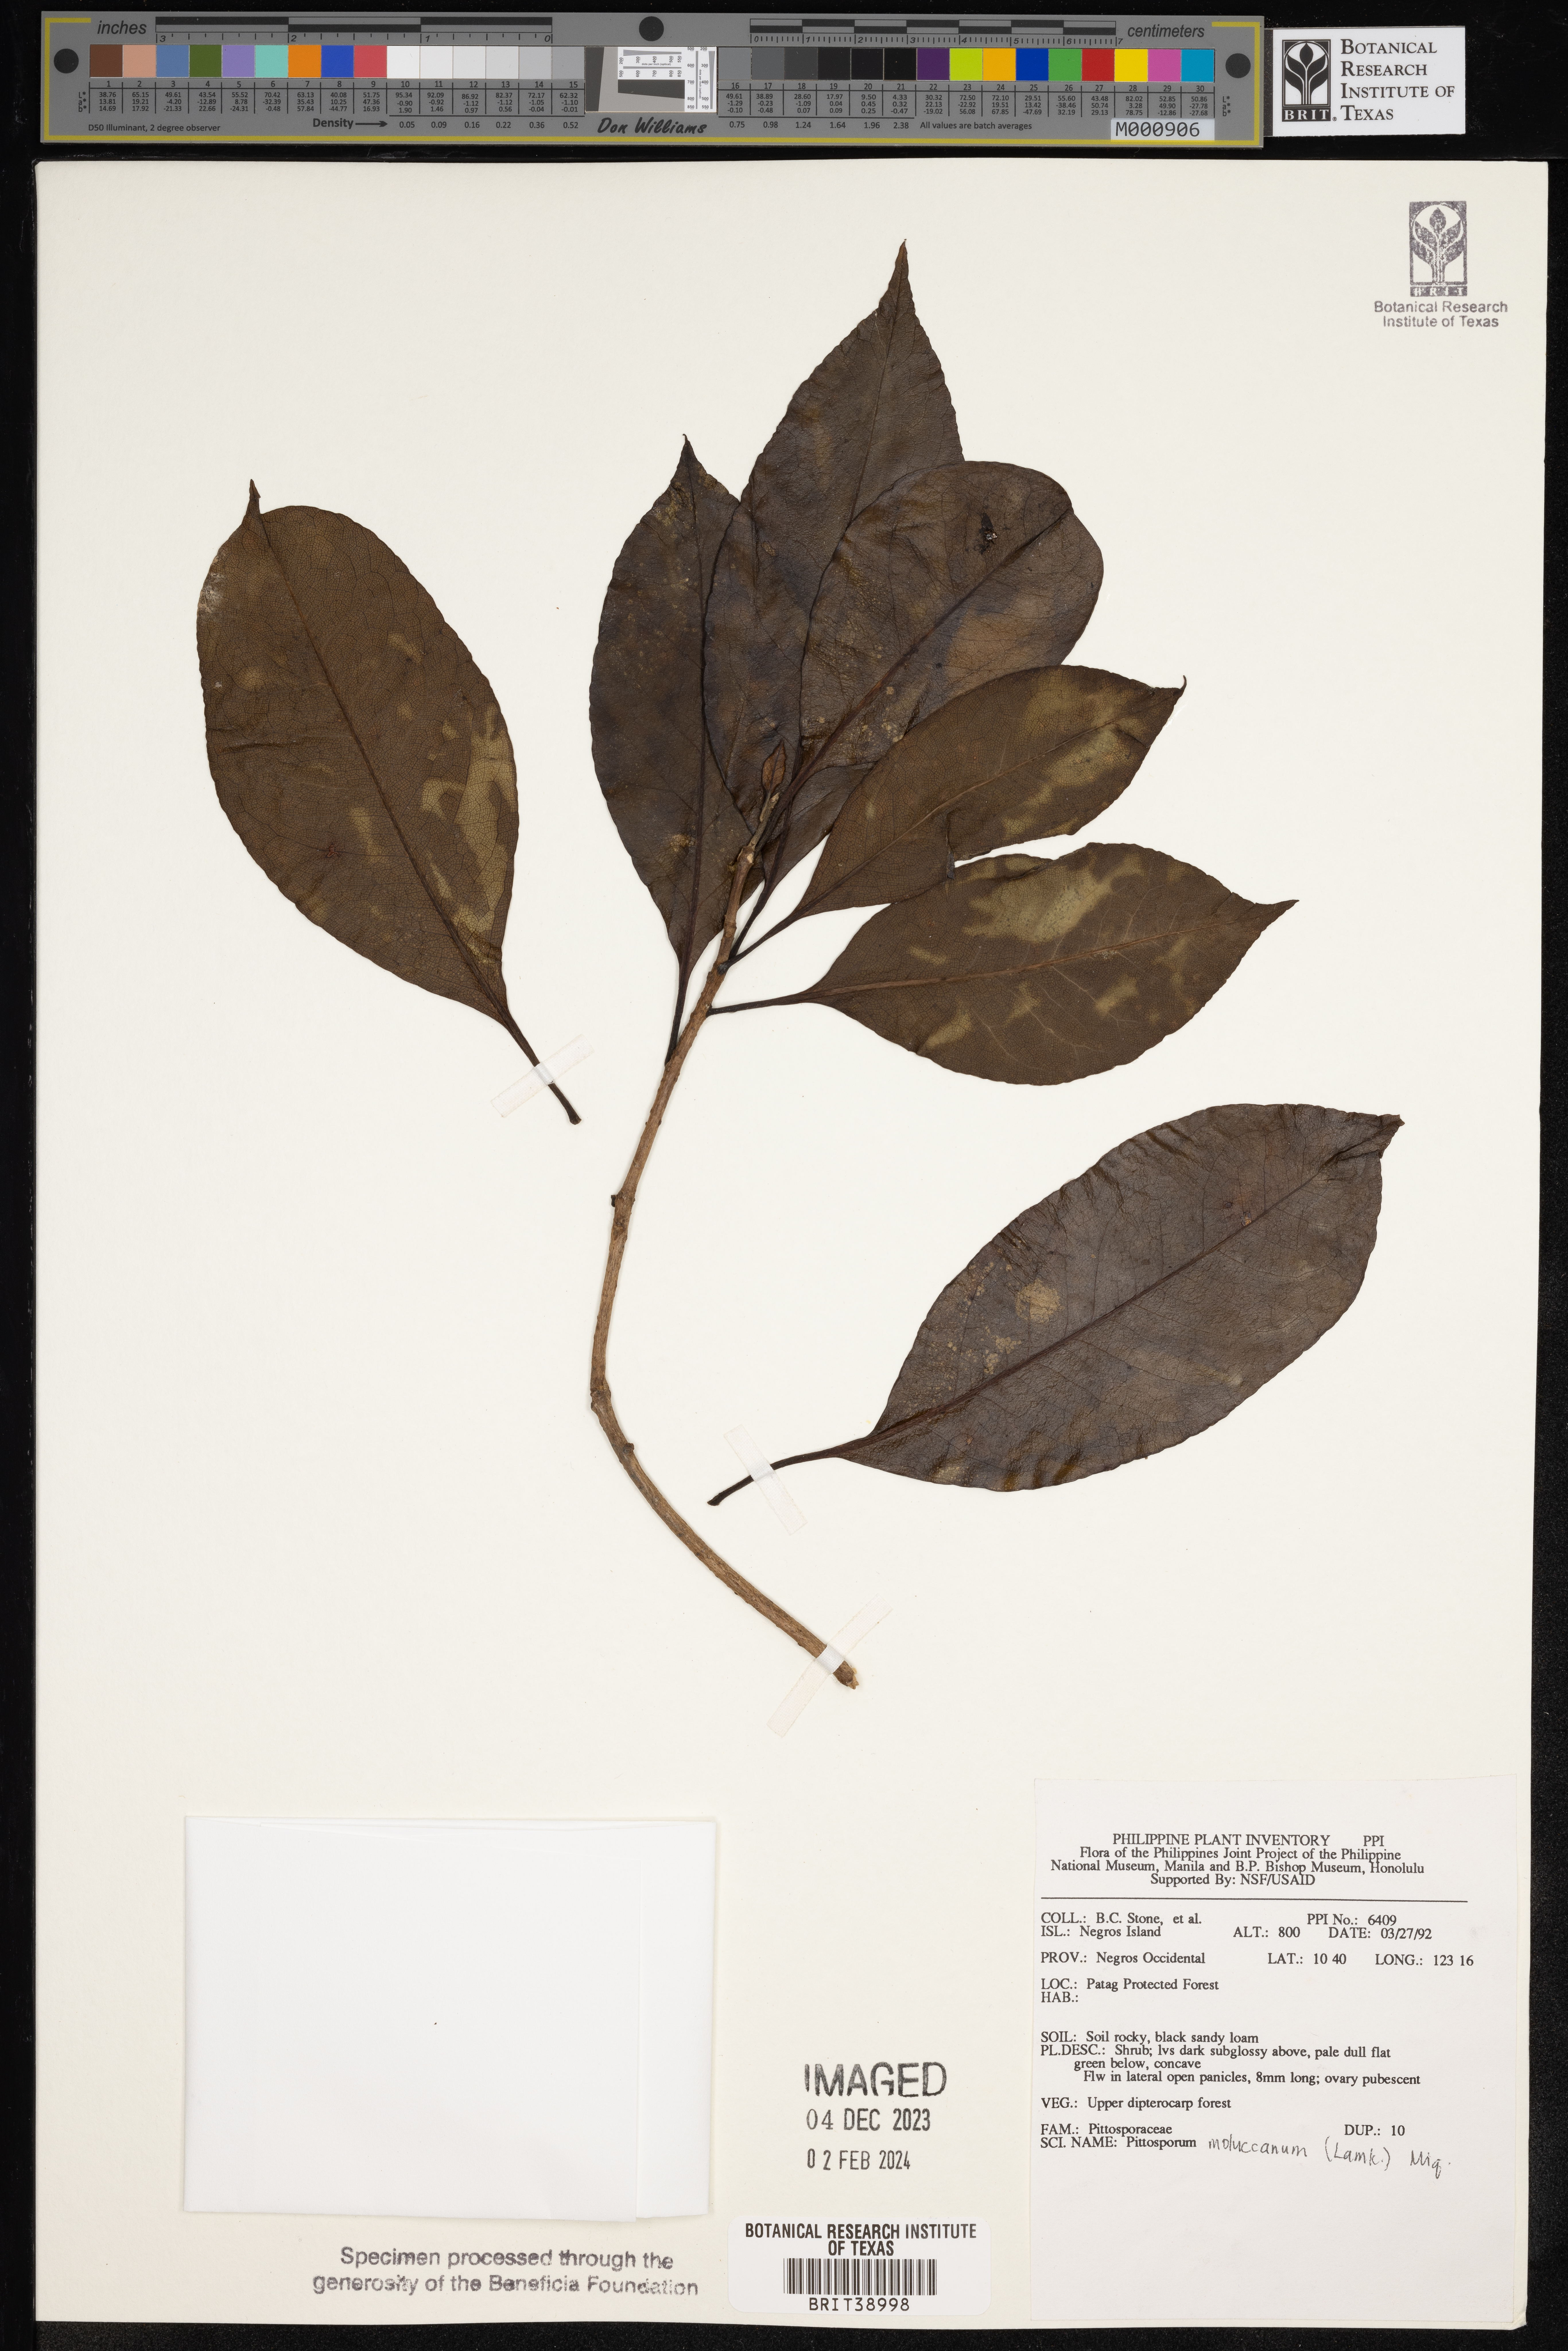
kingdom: Plantae
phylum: Tracheophyta
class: Magnoliopsida
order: Apiales
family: Pittosporaceae
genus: Pittosporum
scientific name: Pittosporum moluccanum
